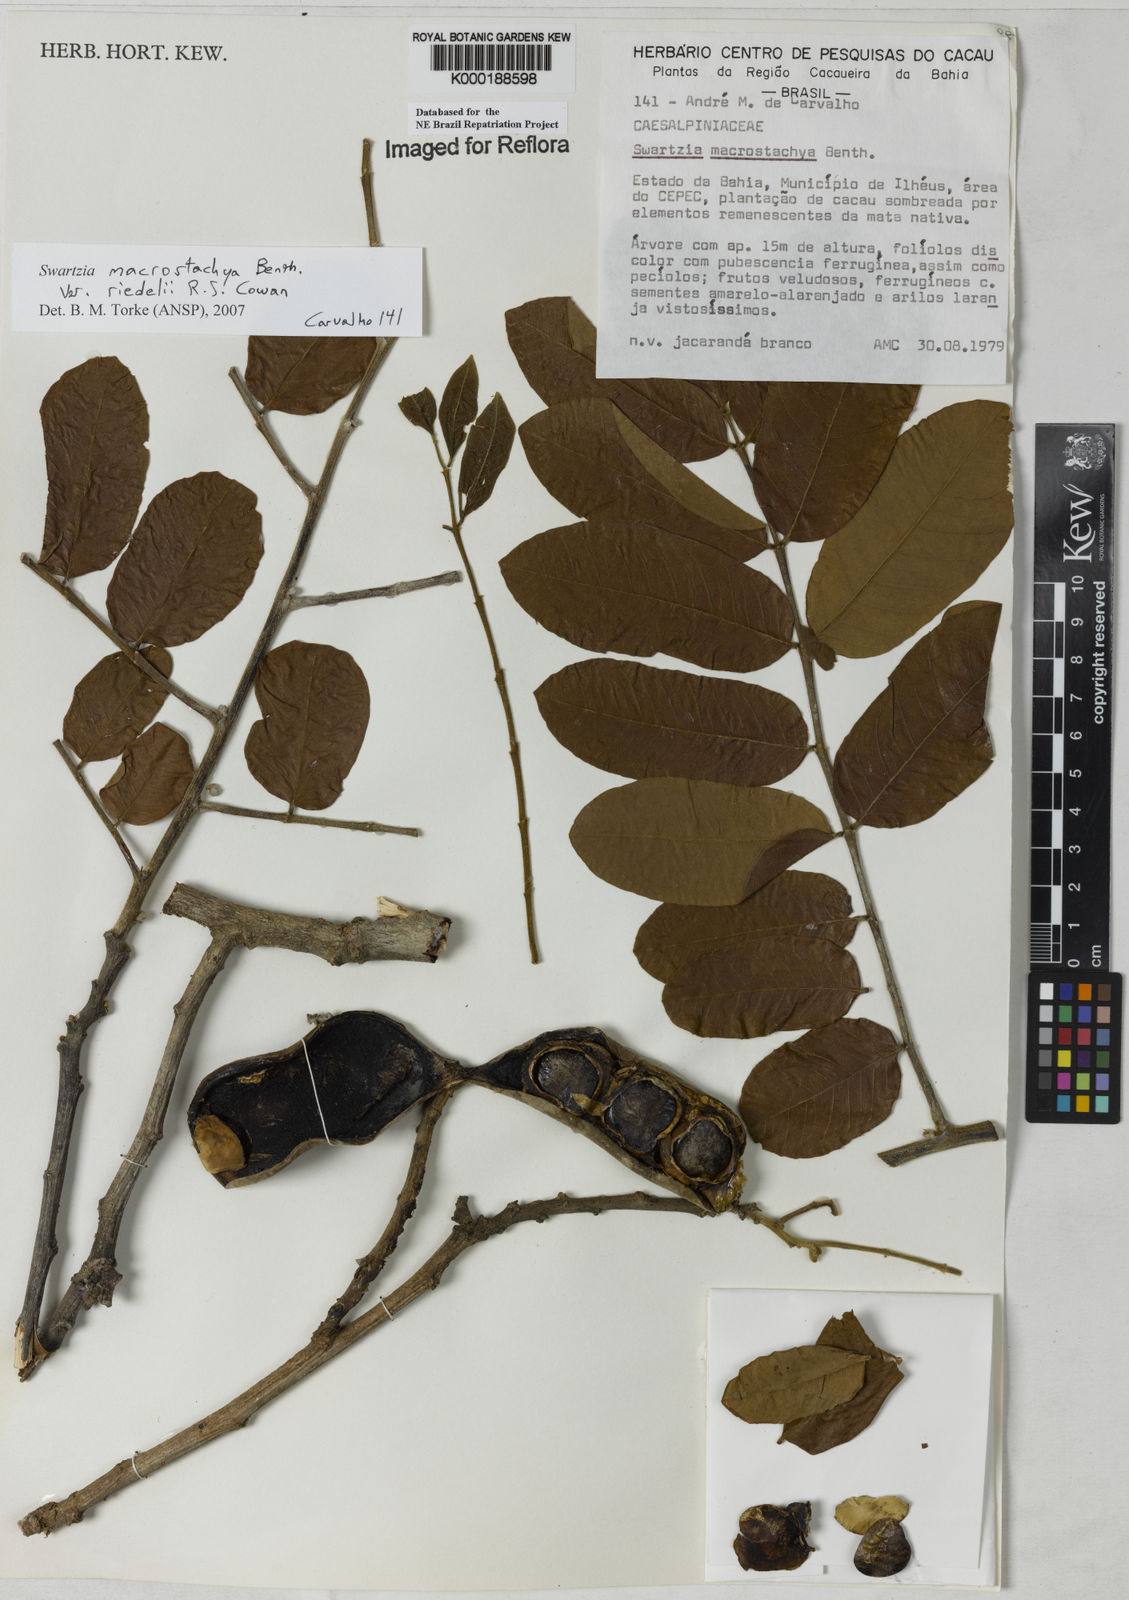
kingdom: Plantae
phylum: Tracheophyta
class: Magnoliopsida
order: Fabales
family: Fabaceae
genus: Swartzia
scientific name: Swartzia
